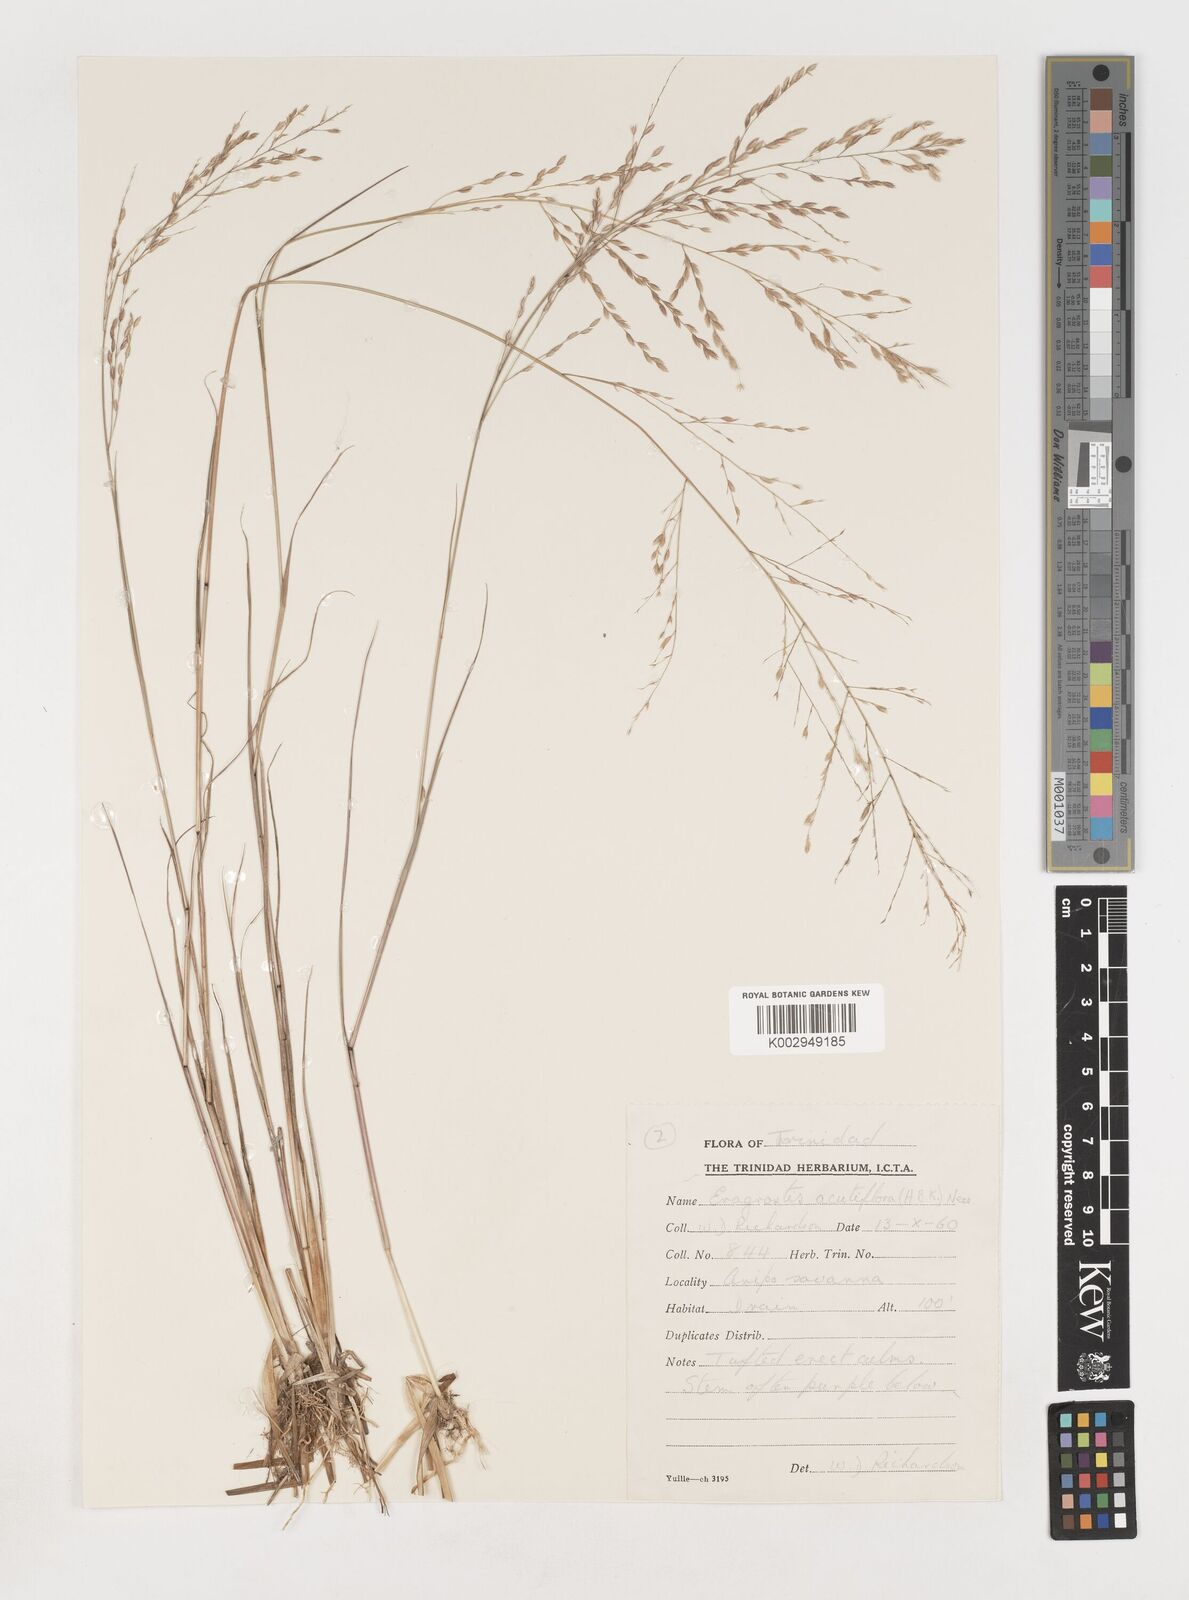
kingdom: Plantae
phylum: Tracheophyta
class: Liliopsida
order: Poales
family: Poaceae
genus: Eragrostis
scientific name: Eragrostis acutiflora
